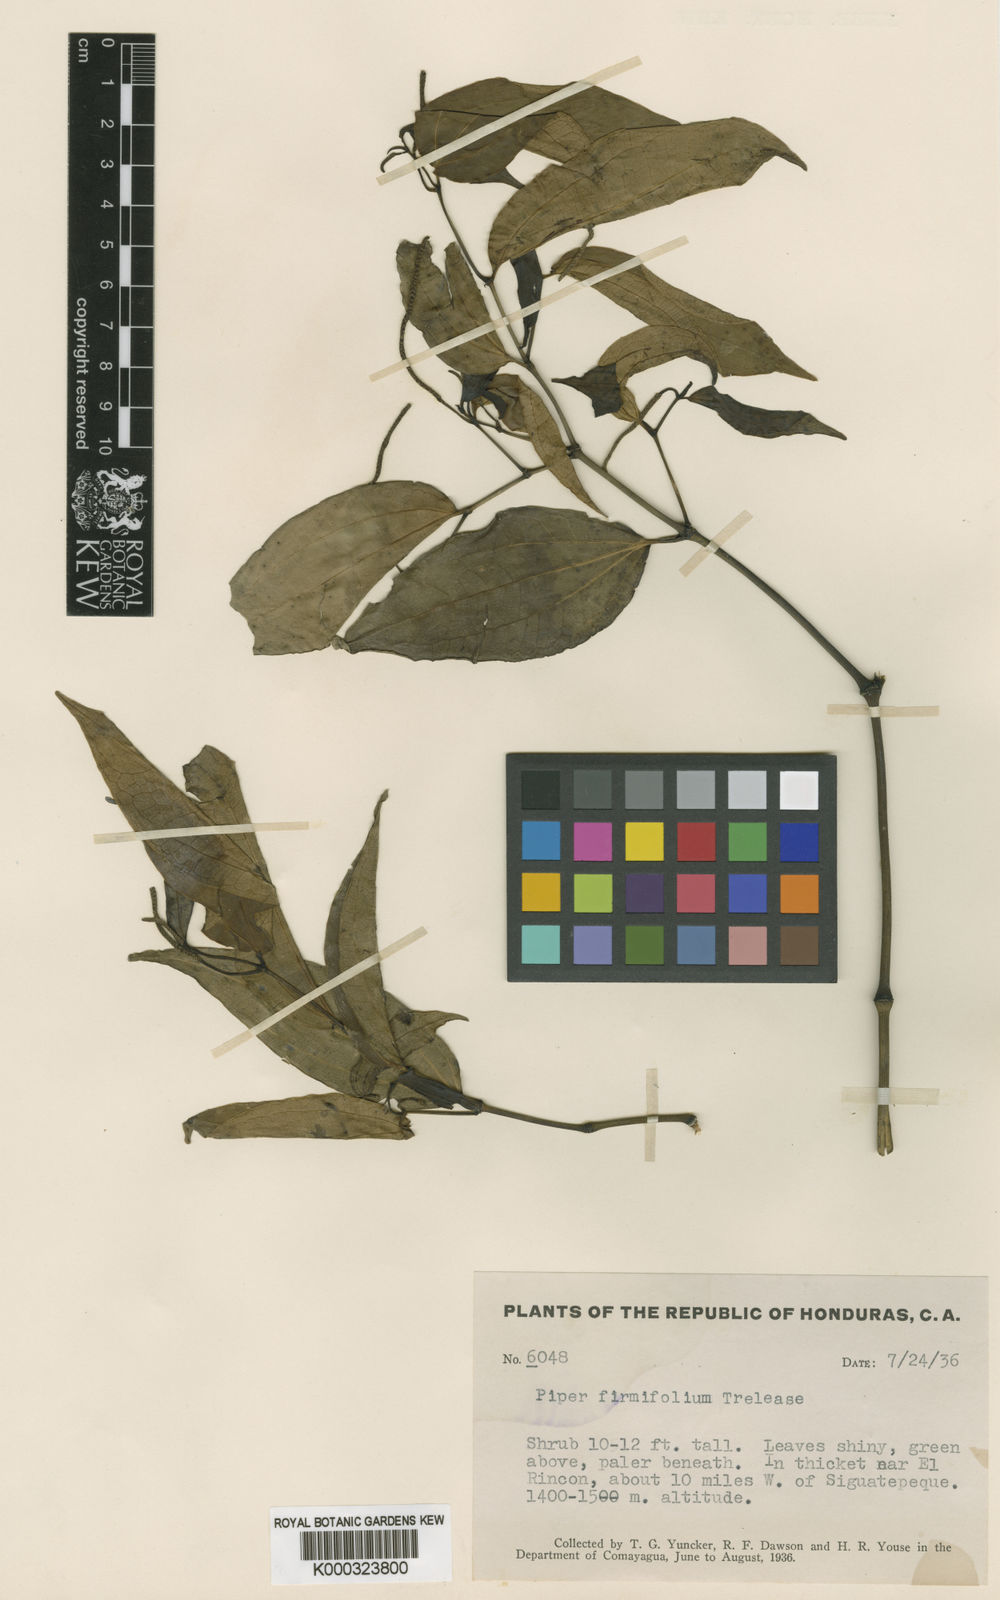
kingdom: Plantae
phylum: Tracheophyta
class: Magnoliopsida
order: Piperales
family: Piperaceae
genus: Piper
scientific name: Piper pseudolindenii
